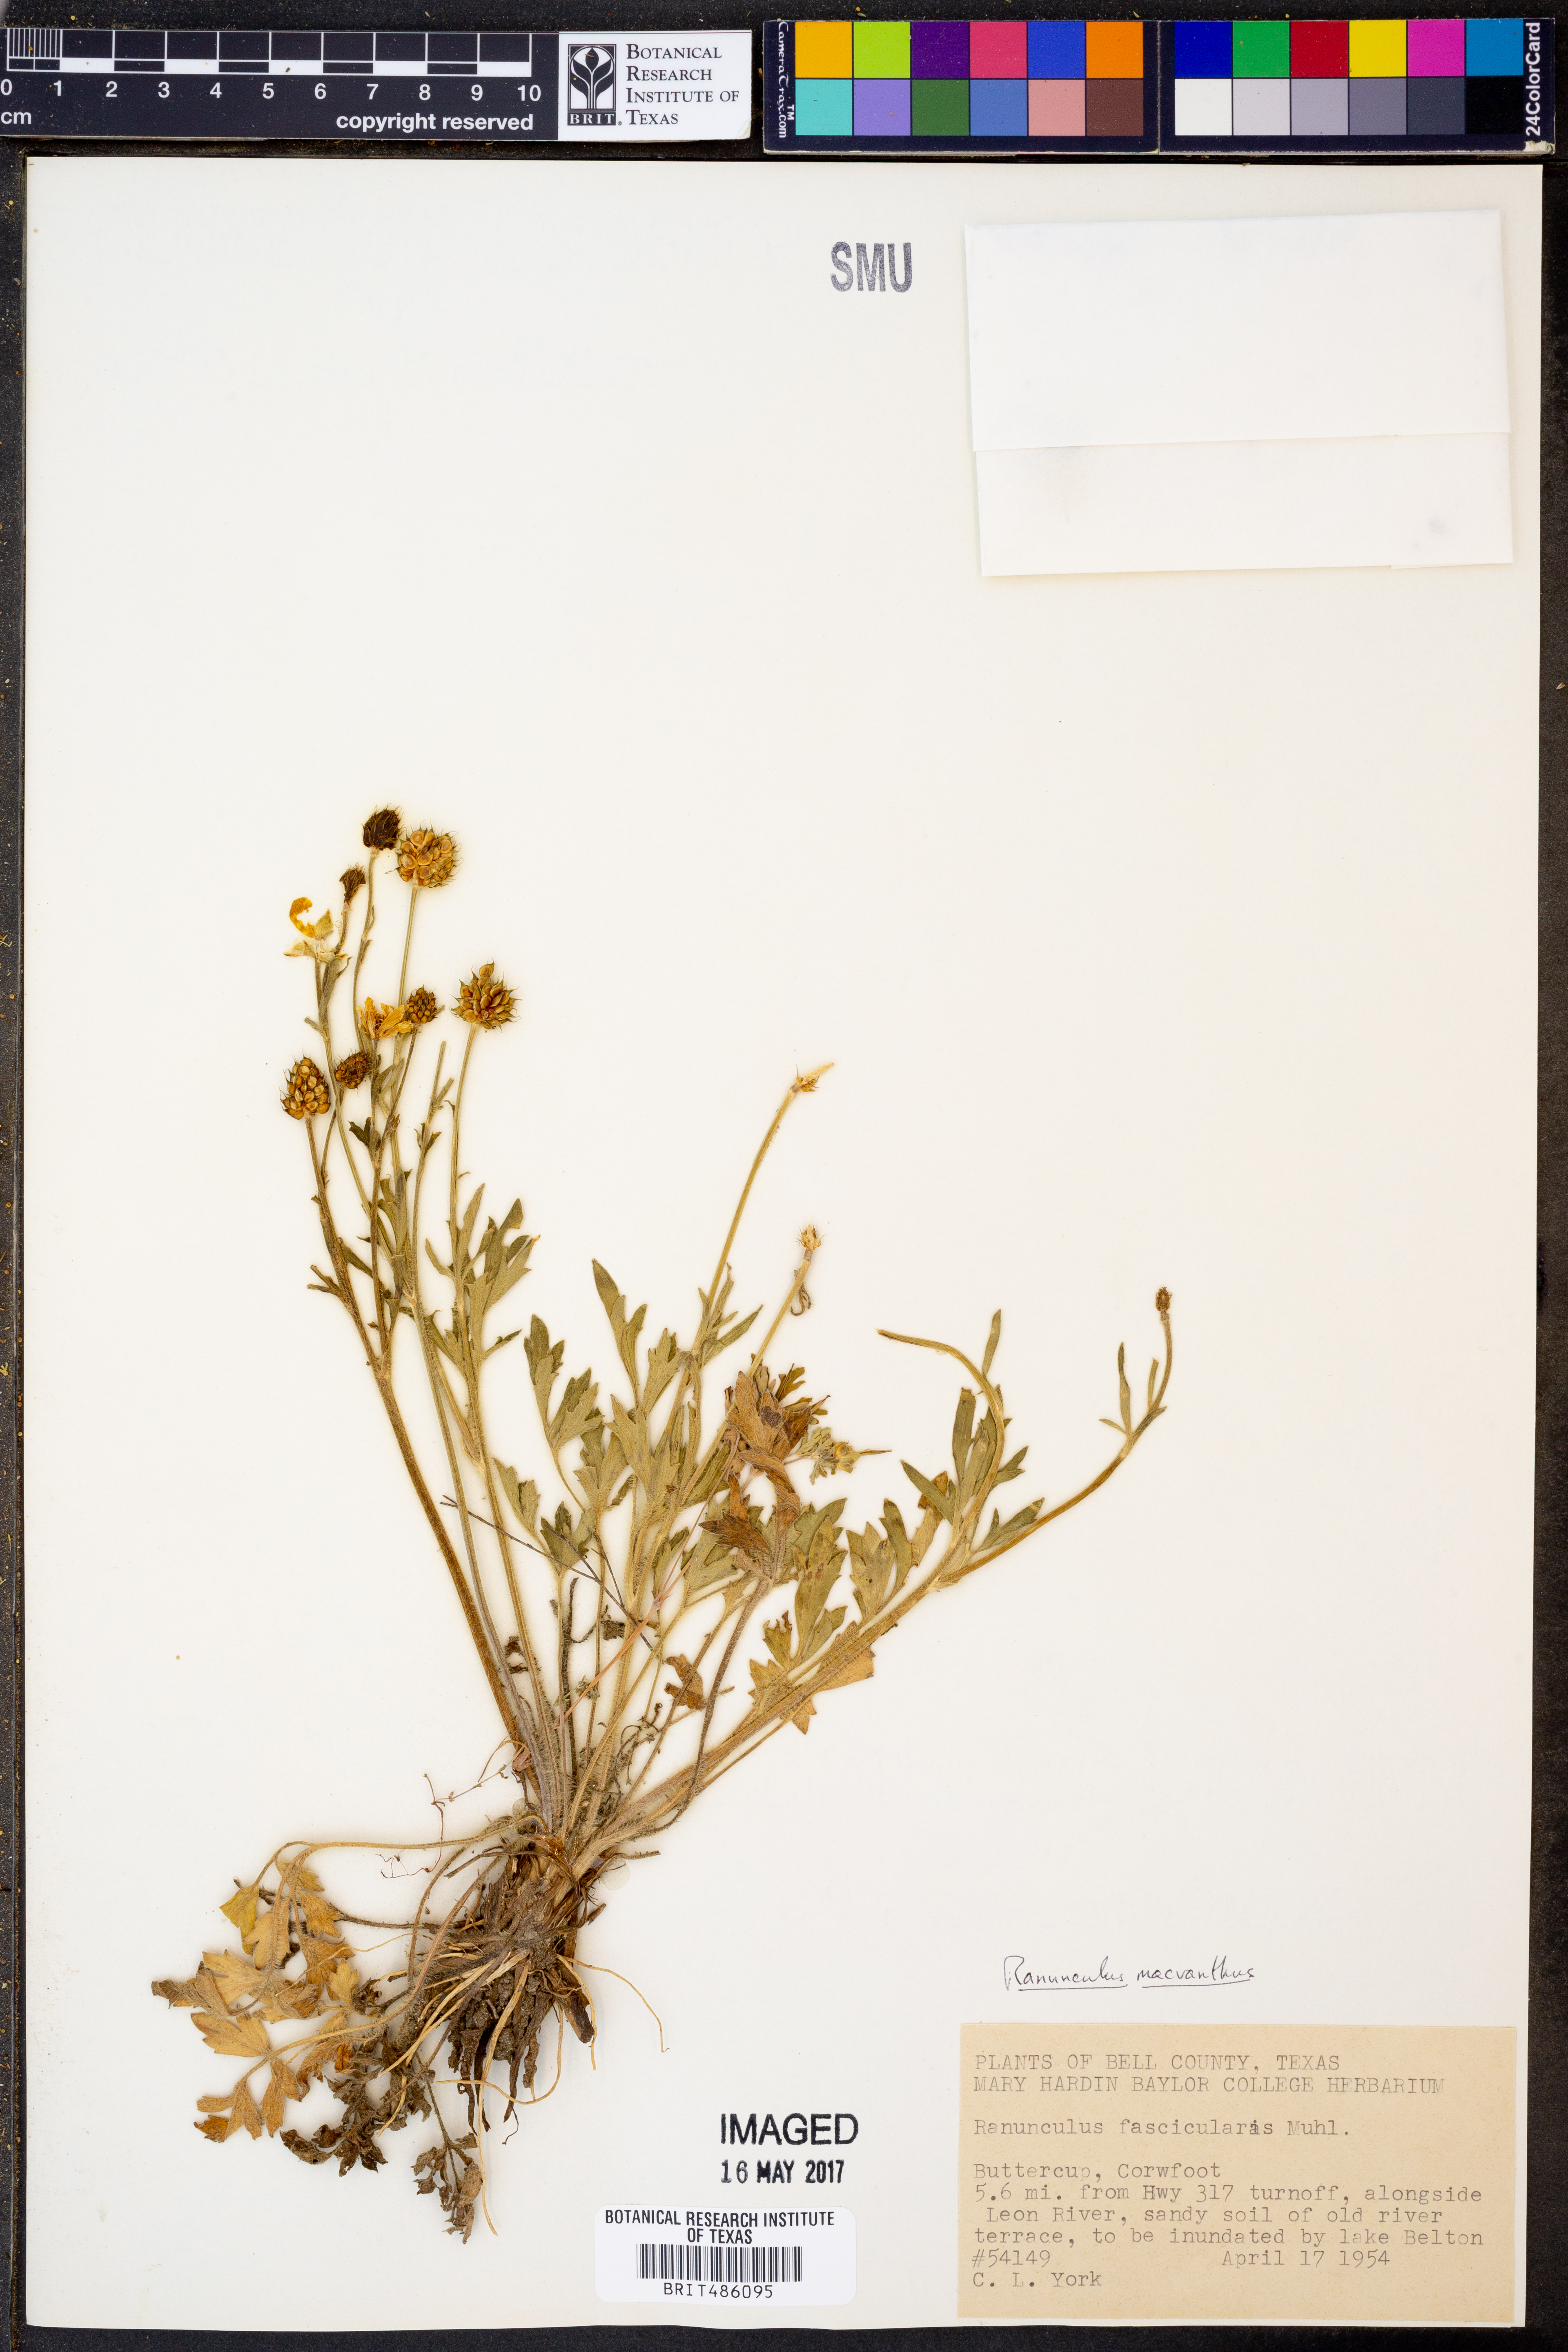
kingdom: Plantae
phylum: Tracheophyta
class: Magnoliopsida
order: Ranunculales
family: Ranunculaceae
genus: Ranunculus
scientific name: Ranunculus macranthus
